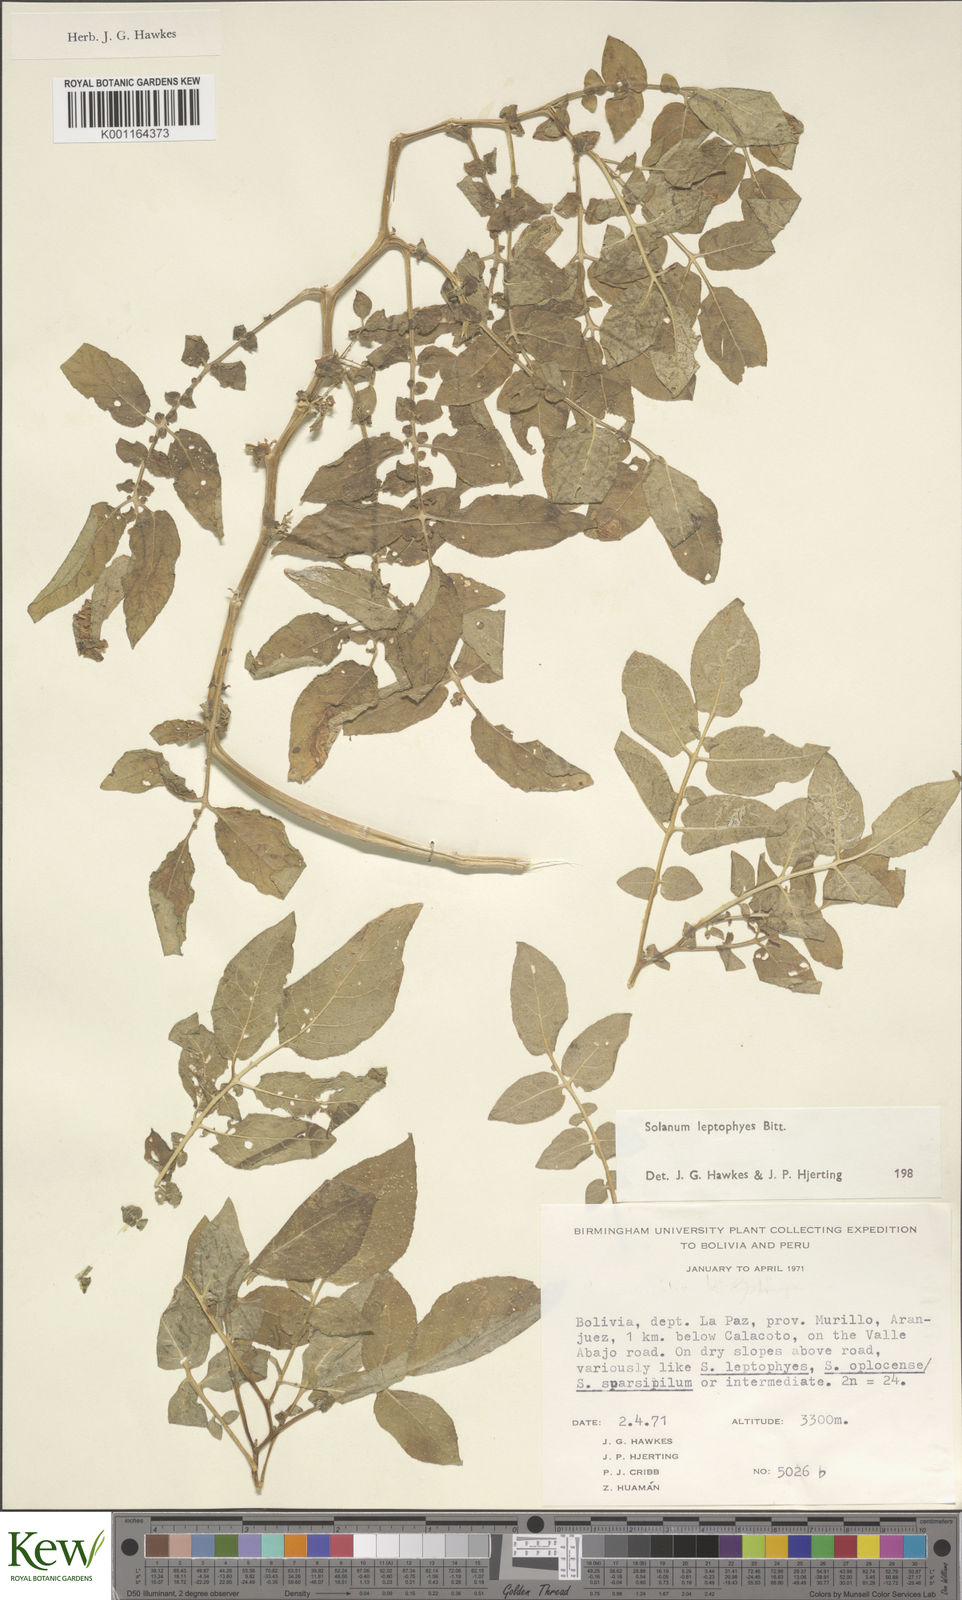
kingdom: Plantae
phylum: Tracheophyta
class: Magnoliopsida
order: Solanales
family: Solanaceae
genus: Solanum
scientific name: Solanum brevicaule
